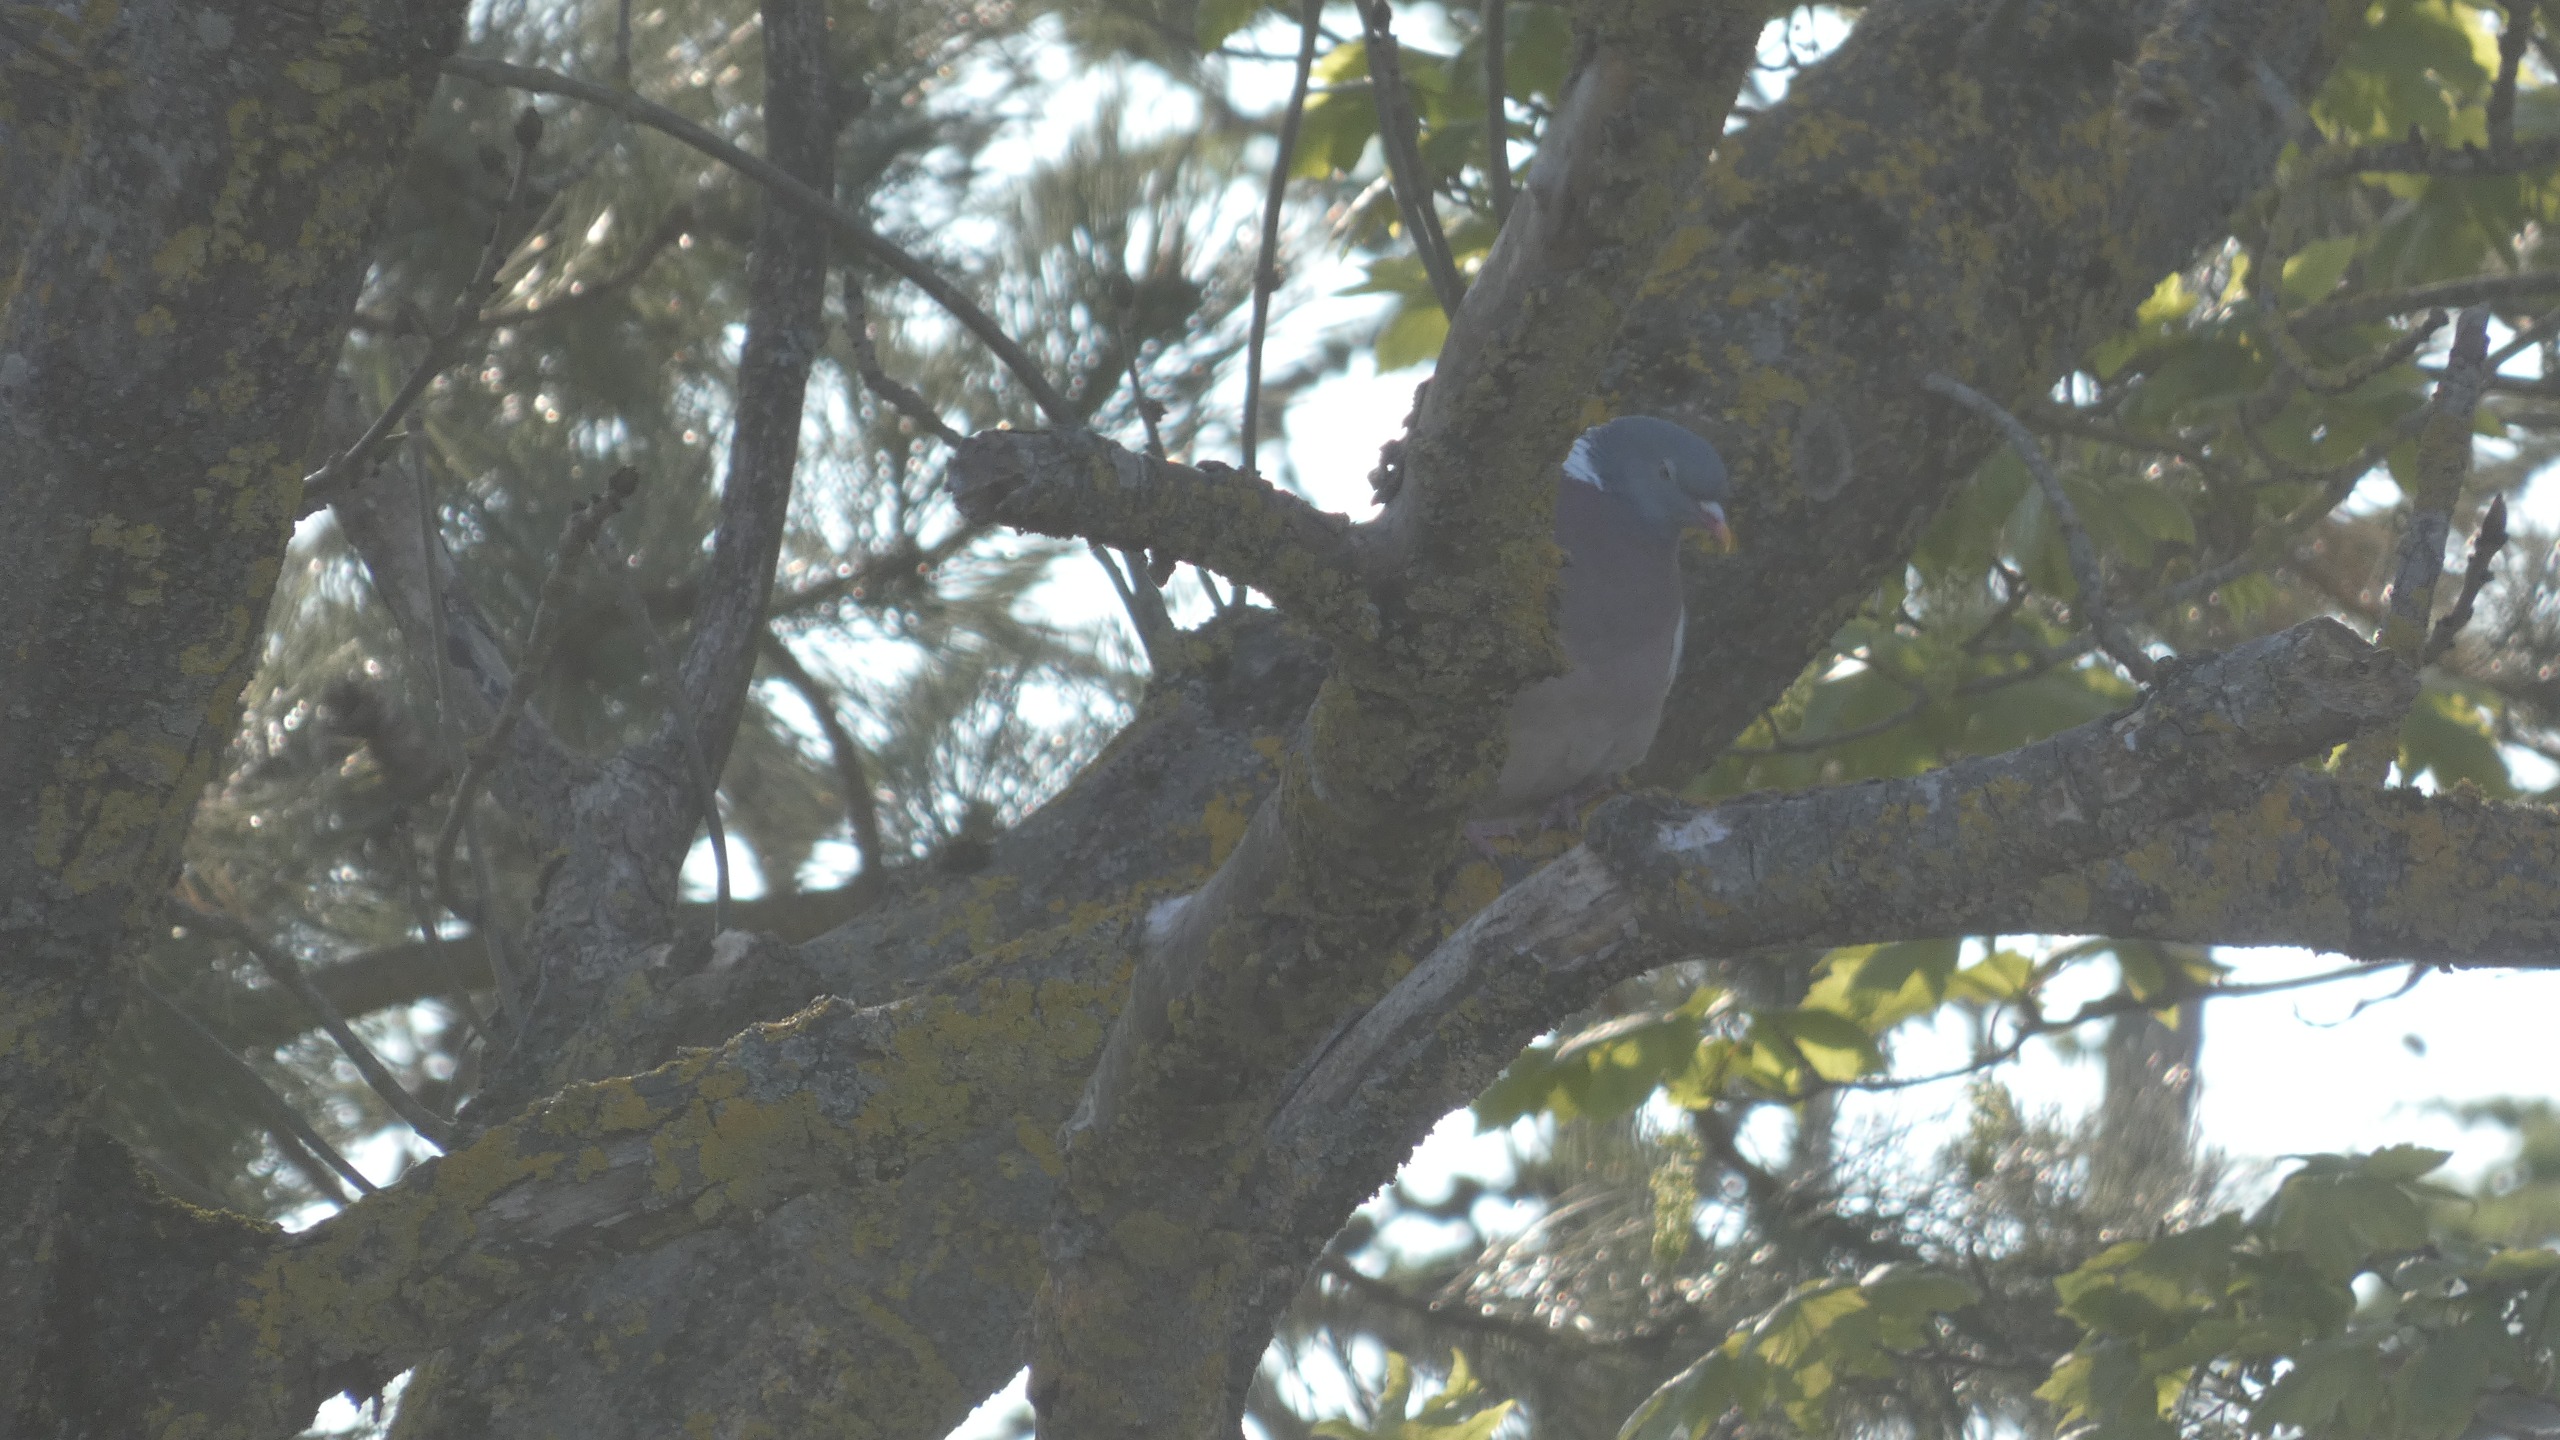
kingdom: Animalia
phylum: Chordata
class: Aves
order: Columbiformes
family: Columbidae
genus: Columba
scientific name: Columba palumbus
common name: Ringdue
